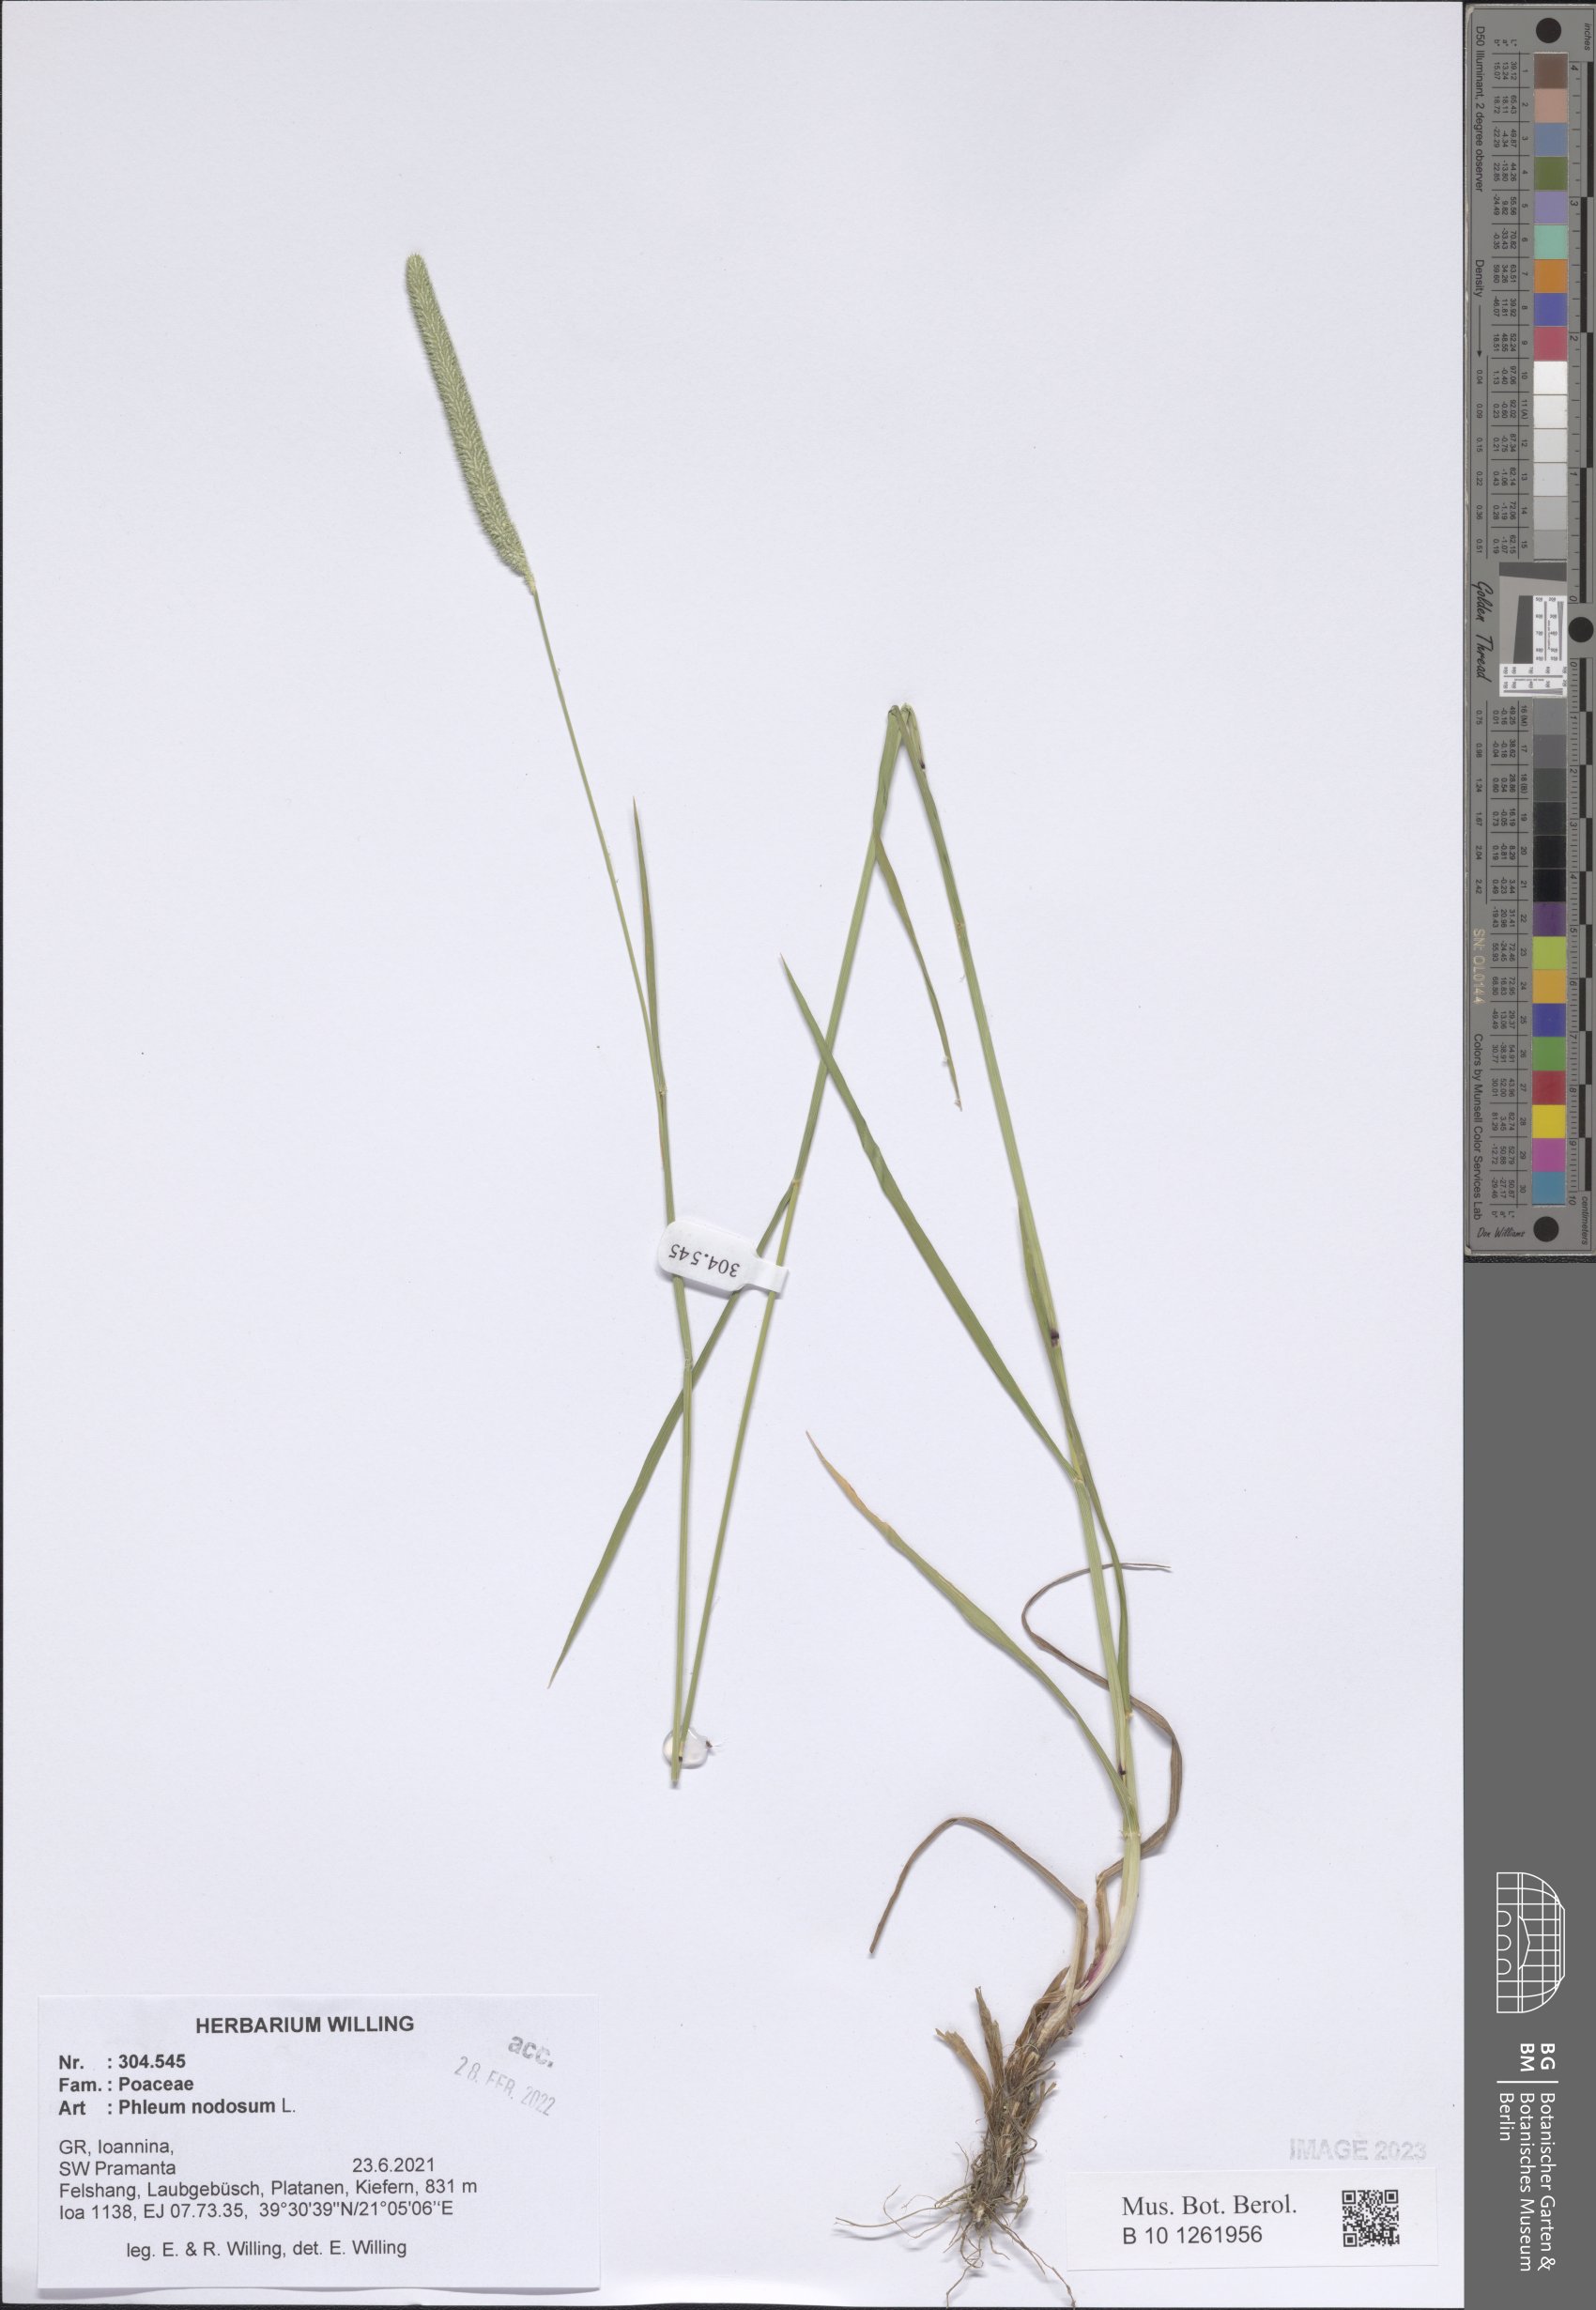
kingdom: Plantae
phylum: Tracheophyta
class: Liliopsida
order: Poales
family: Poaceae
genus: Phleum
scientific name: Phleum pratense
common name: Timothy grass
